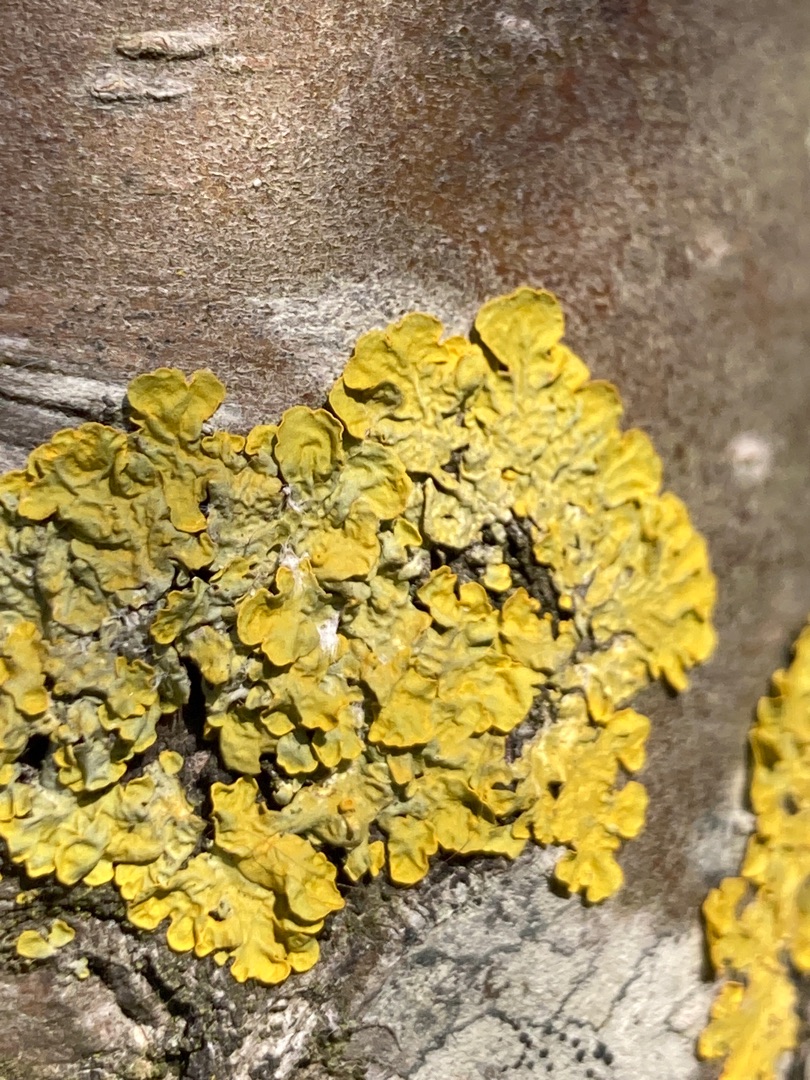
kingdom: Fungi
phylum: Ascomycota
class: Lecanoromycetes
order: Teloschistales
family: Teloschistaceae
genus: Xanthoria
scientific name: Xanthoria parietina
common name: Almindelig væggelav
